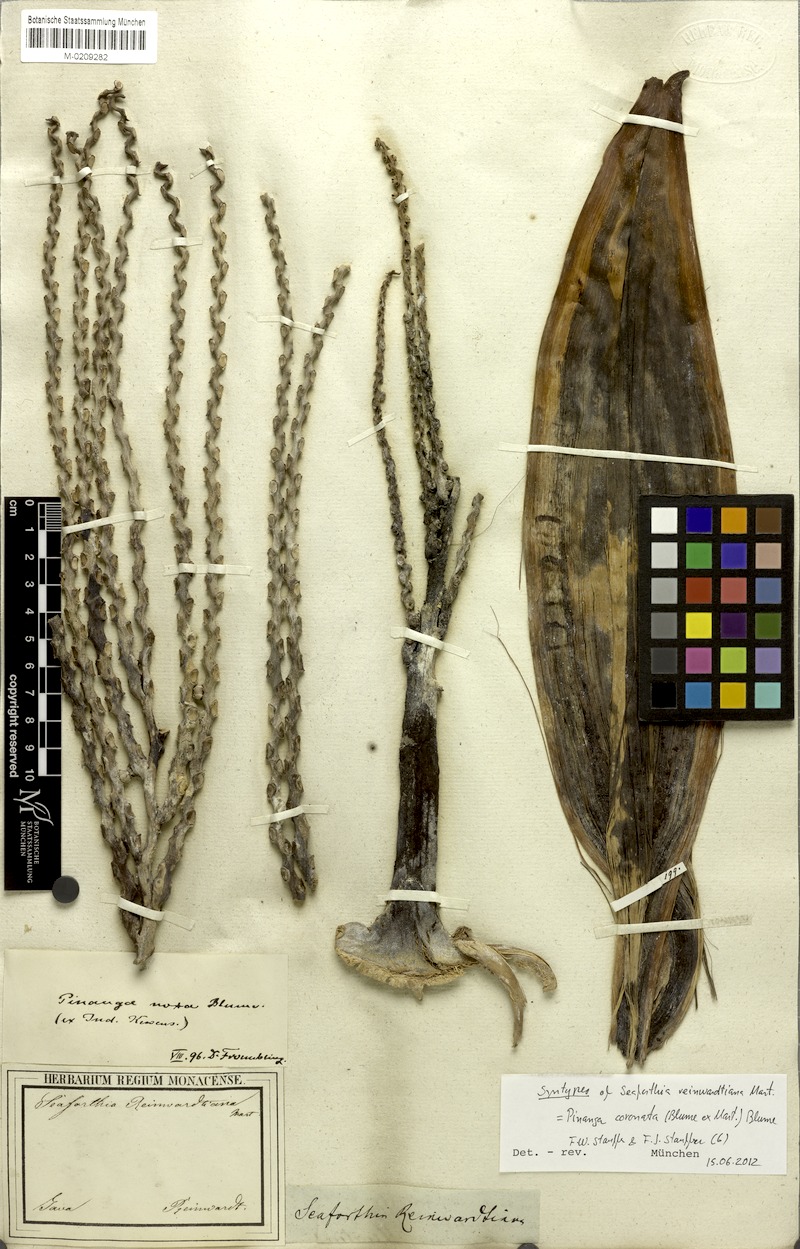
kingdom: Plantae
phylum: Tracheophyta
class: Liliopsida
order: Arecales
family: Arecaceae
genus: Pinanga
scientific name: Pinanga coronata
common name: Ivory cane palm
